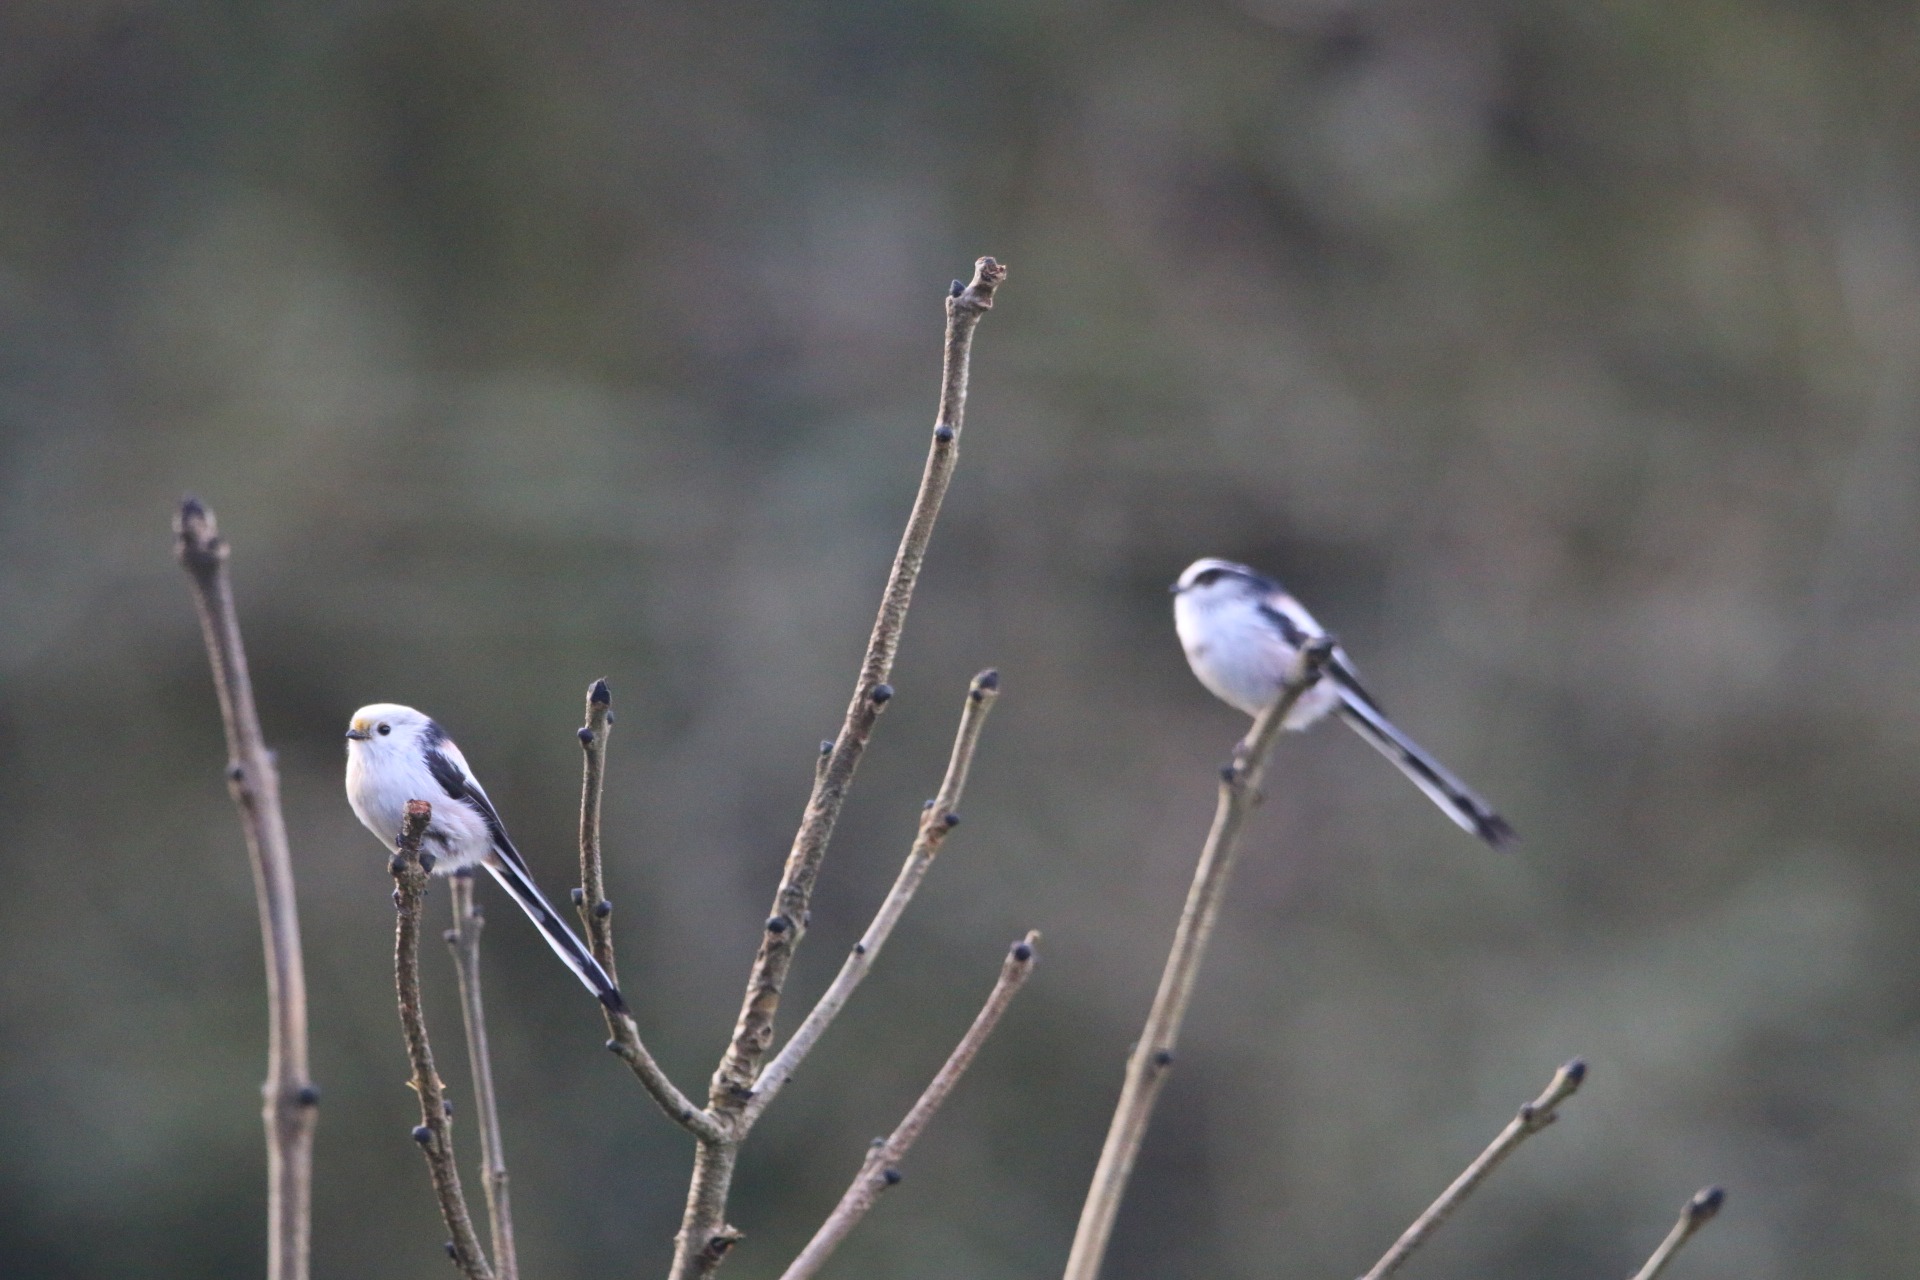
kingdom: Animalia
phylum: Chordata
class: Aves
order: Passeriformes
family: Aegithalidae
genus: Aegithalos
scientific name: Aegithalos caudatus
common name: Halemejse
